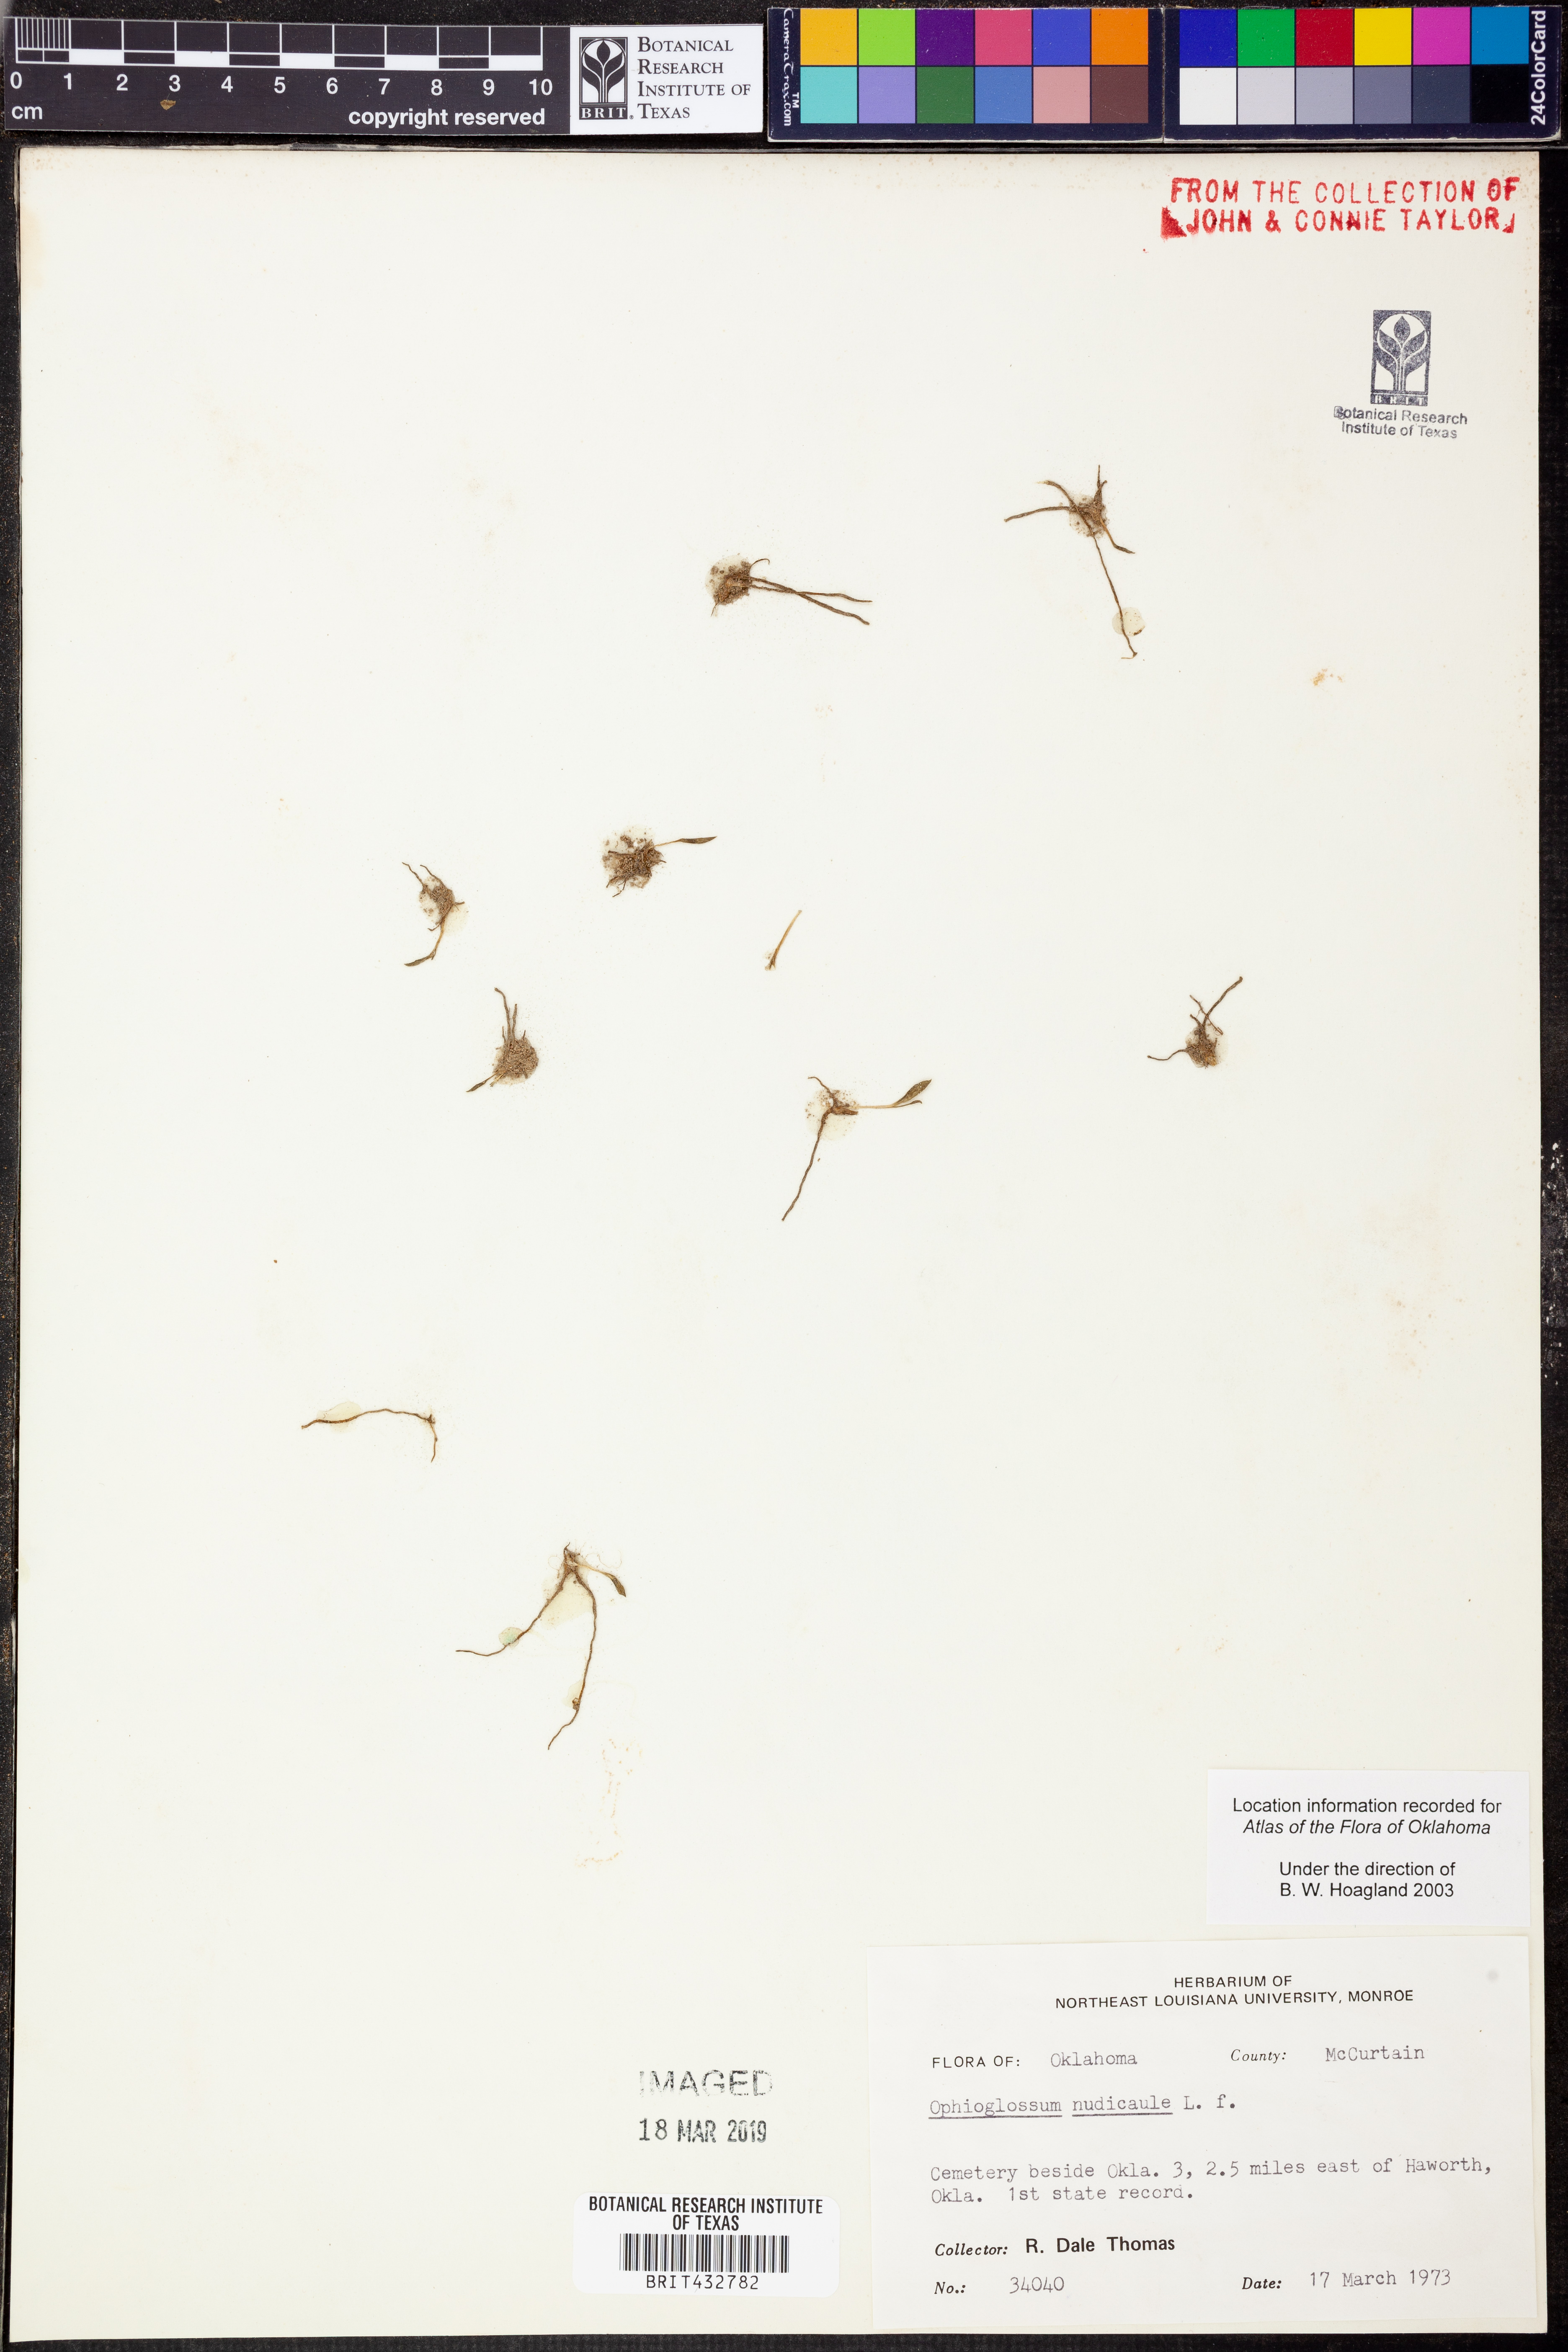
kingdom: Plantae
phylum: Tracheophyta
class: Polypodiopsida
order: Ophioglossales
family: Ophioglossaceae
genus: Ophioglossum
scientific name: Ophioglossum nudicaule
